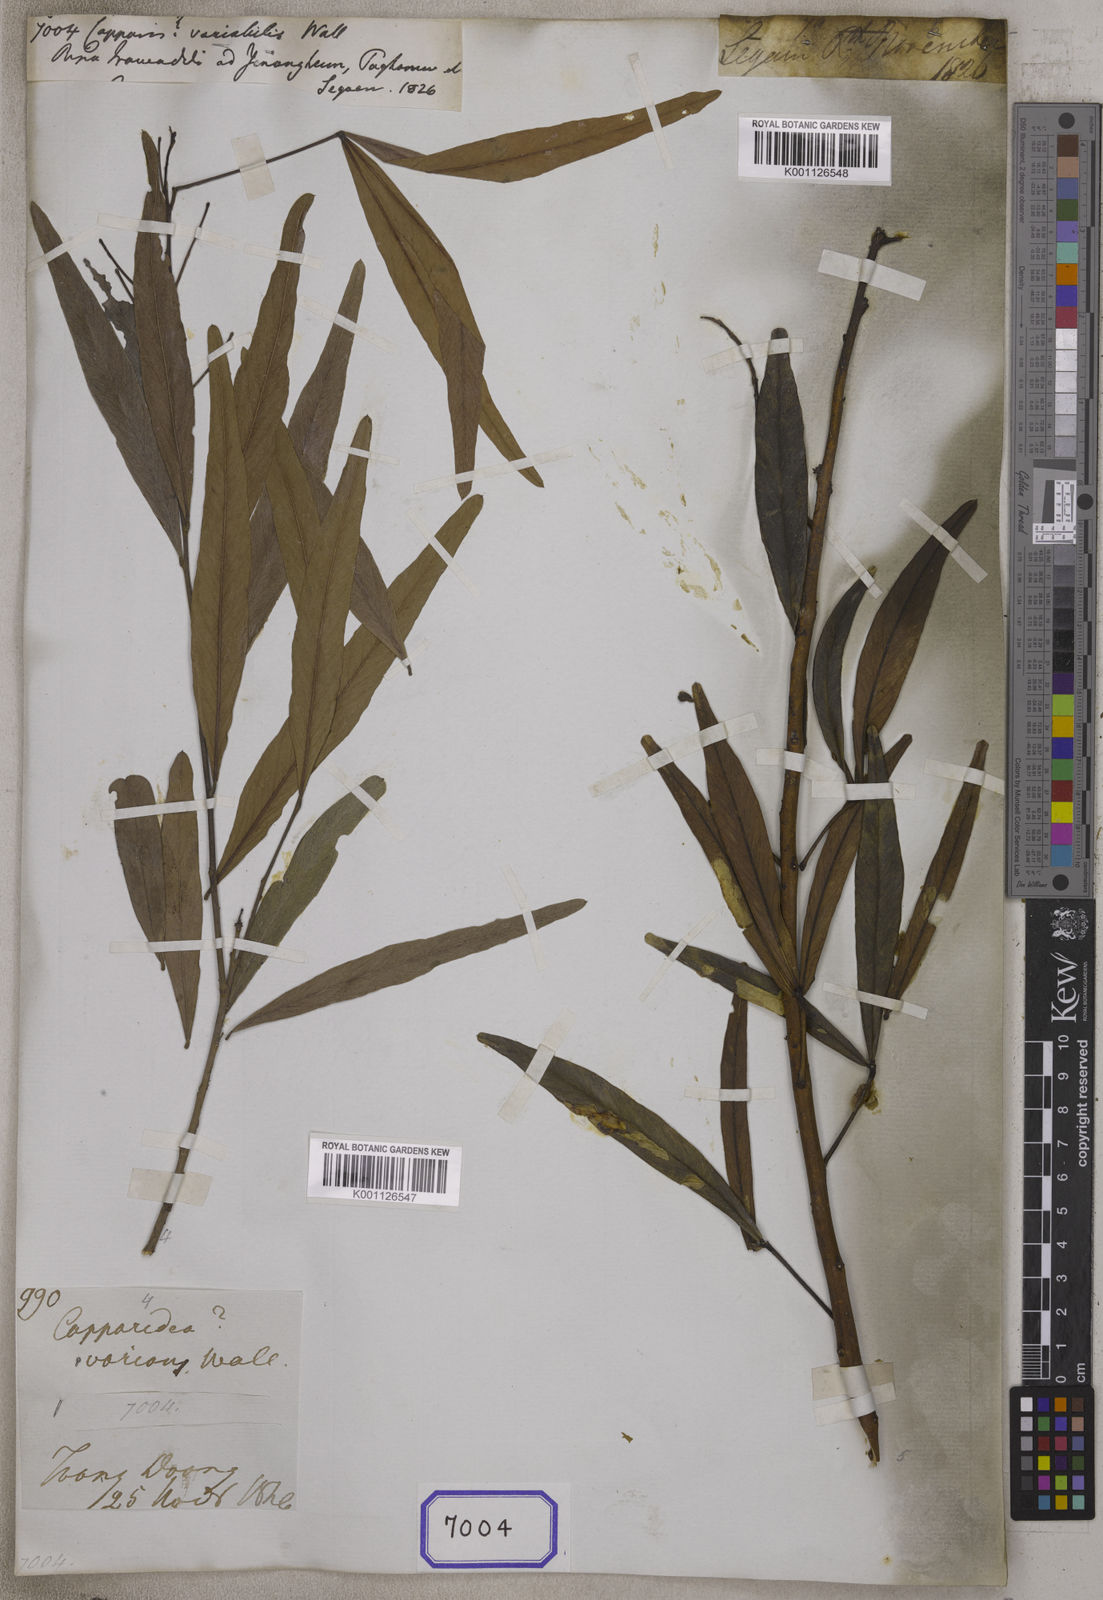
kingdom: Plantae
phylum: Tracheophyta
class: Magnoliopsida
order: Brassicales
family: Capparaceae
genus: Capparis
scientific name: Capparis
